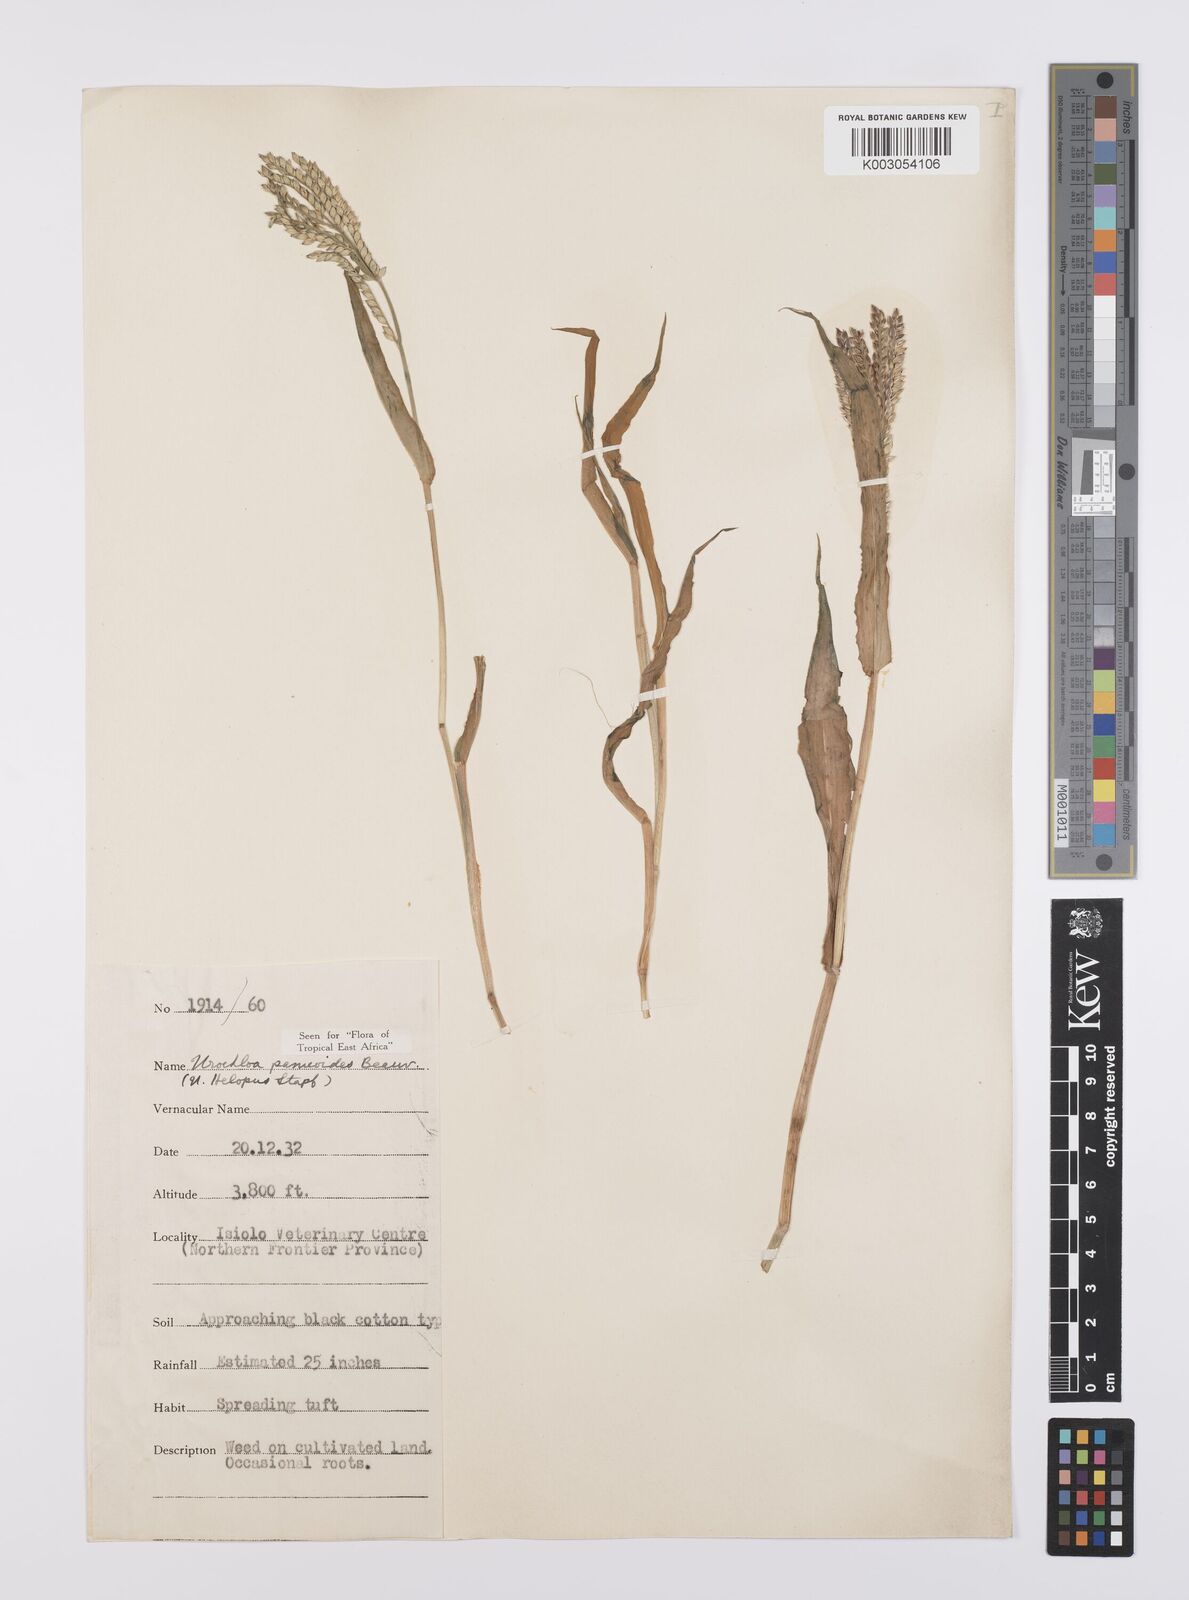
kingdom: Plantae
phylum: Tracheophyta
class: Liliopsida
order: Poales
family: Poaceae
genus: Urochloa
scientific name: Urochloa panicoides
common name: Sharp-flowered signal-grass
